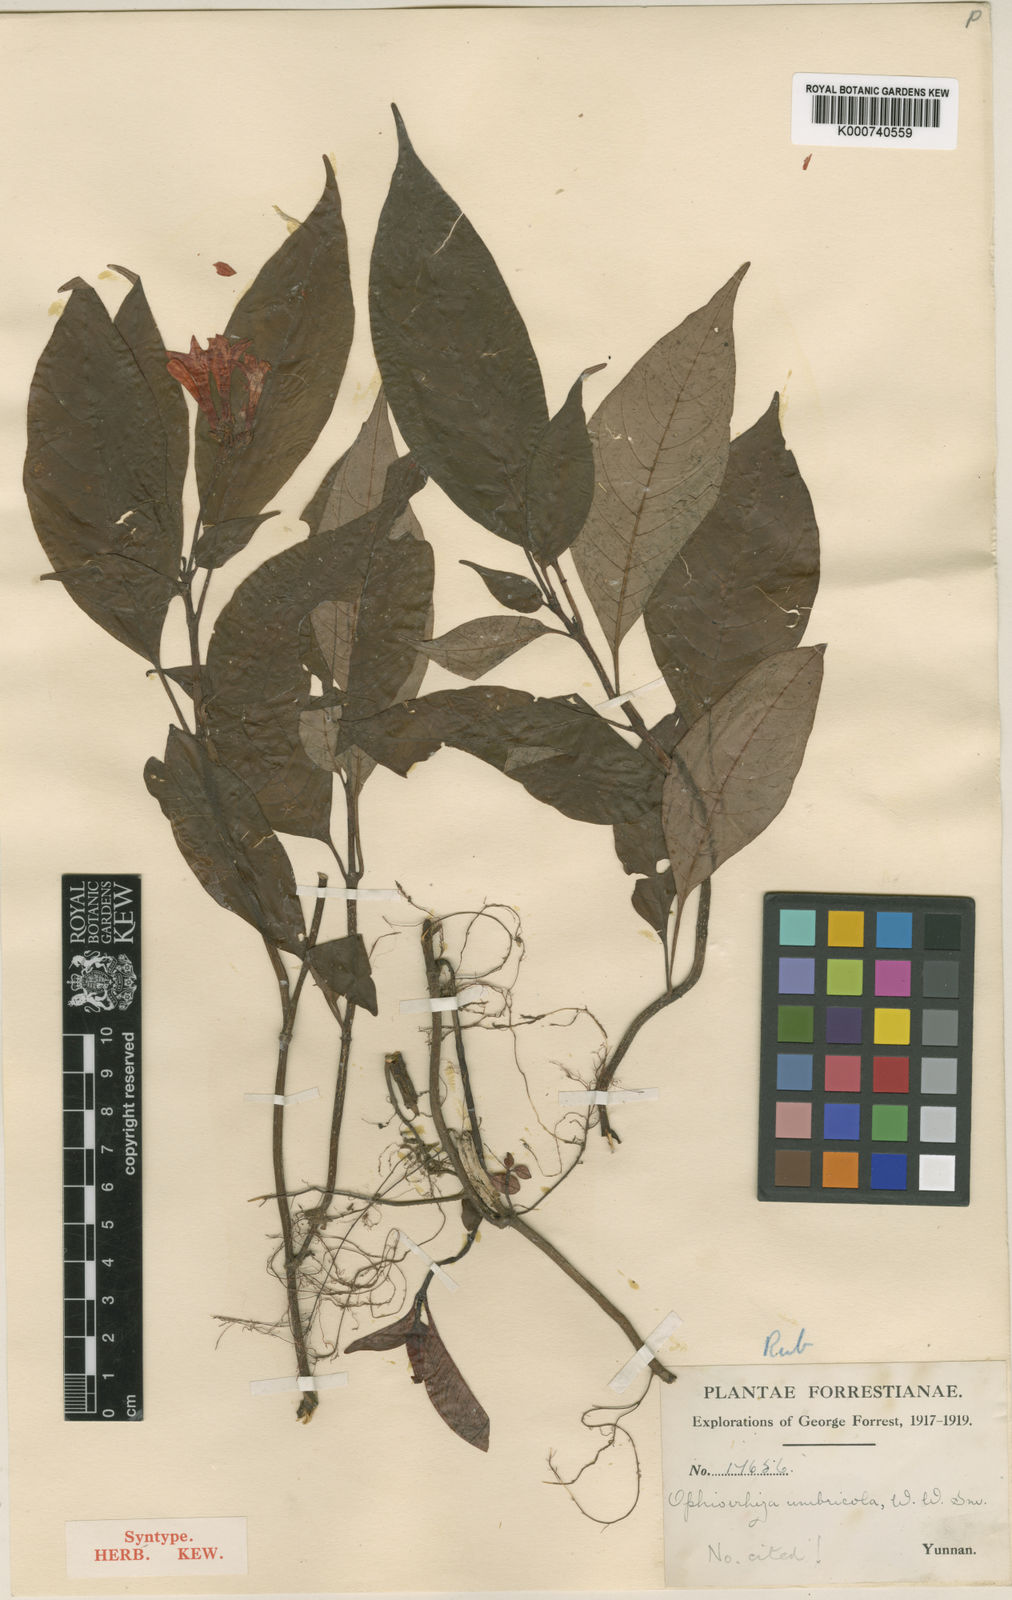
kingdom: Plantae
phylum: Tracheophyta
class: Magnoliopsida
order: Gentianales
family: Rubiaceae
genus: Ophiorrhiza
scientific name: Ophiorrhiza umbricola
